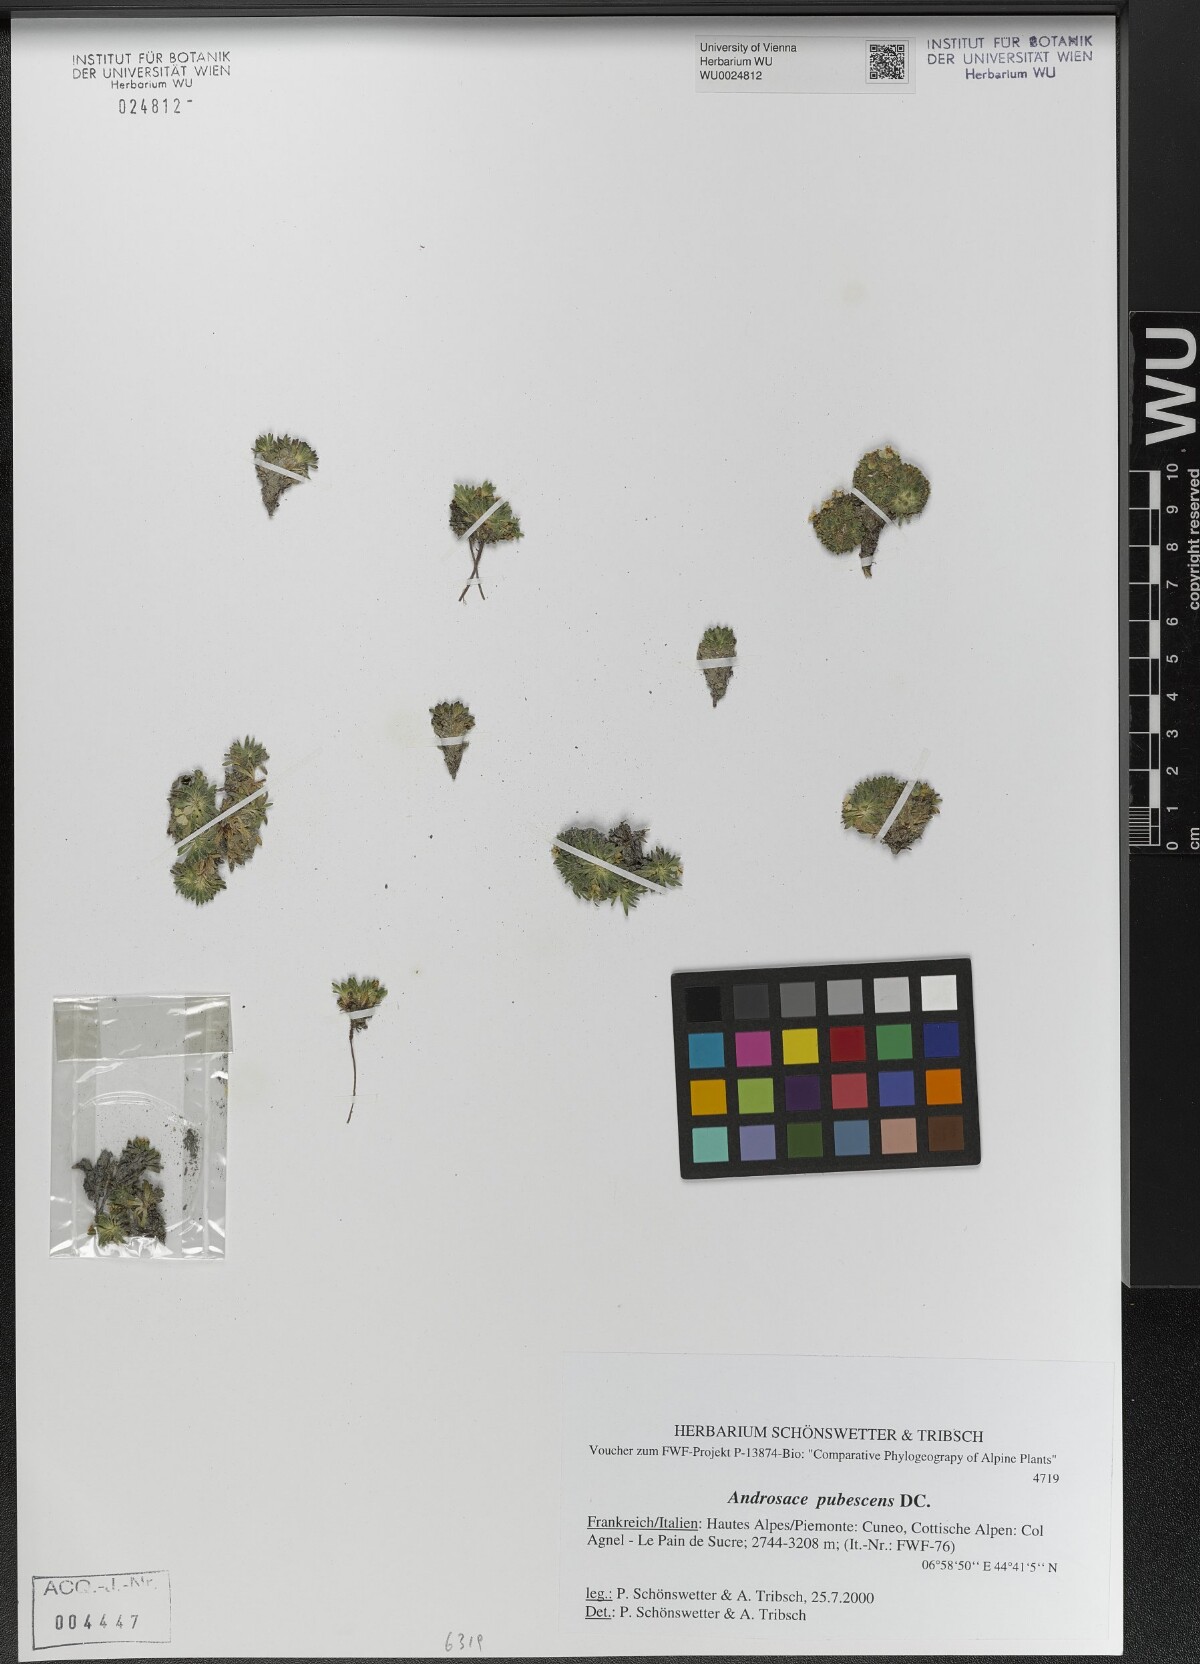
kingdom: Plantae
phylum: Tracheophyta
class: Magnoliopsida
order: Ericales
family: Primulaceae
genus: Androsace
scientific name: Androsace pubescens
